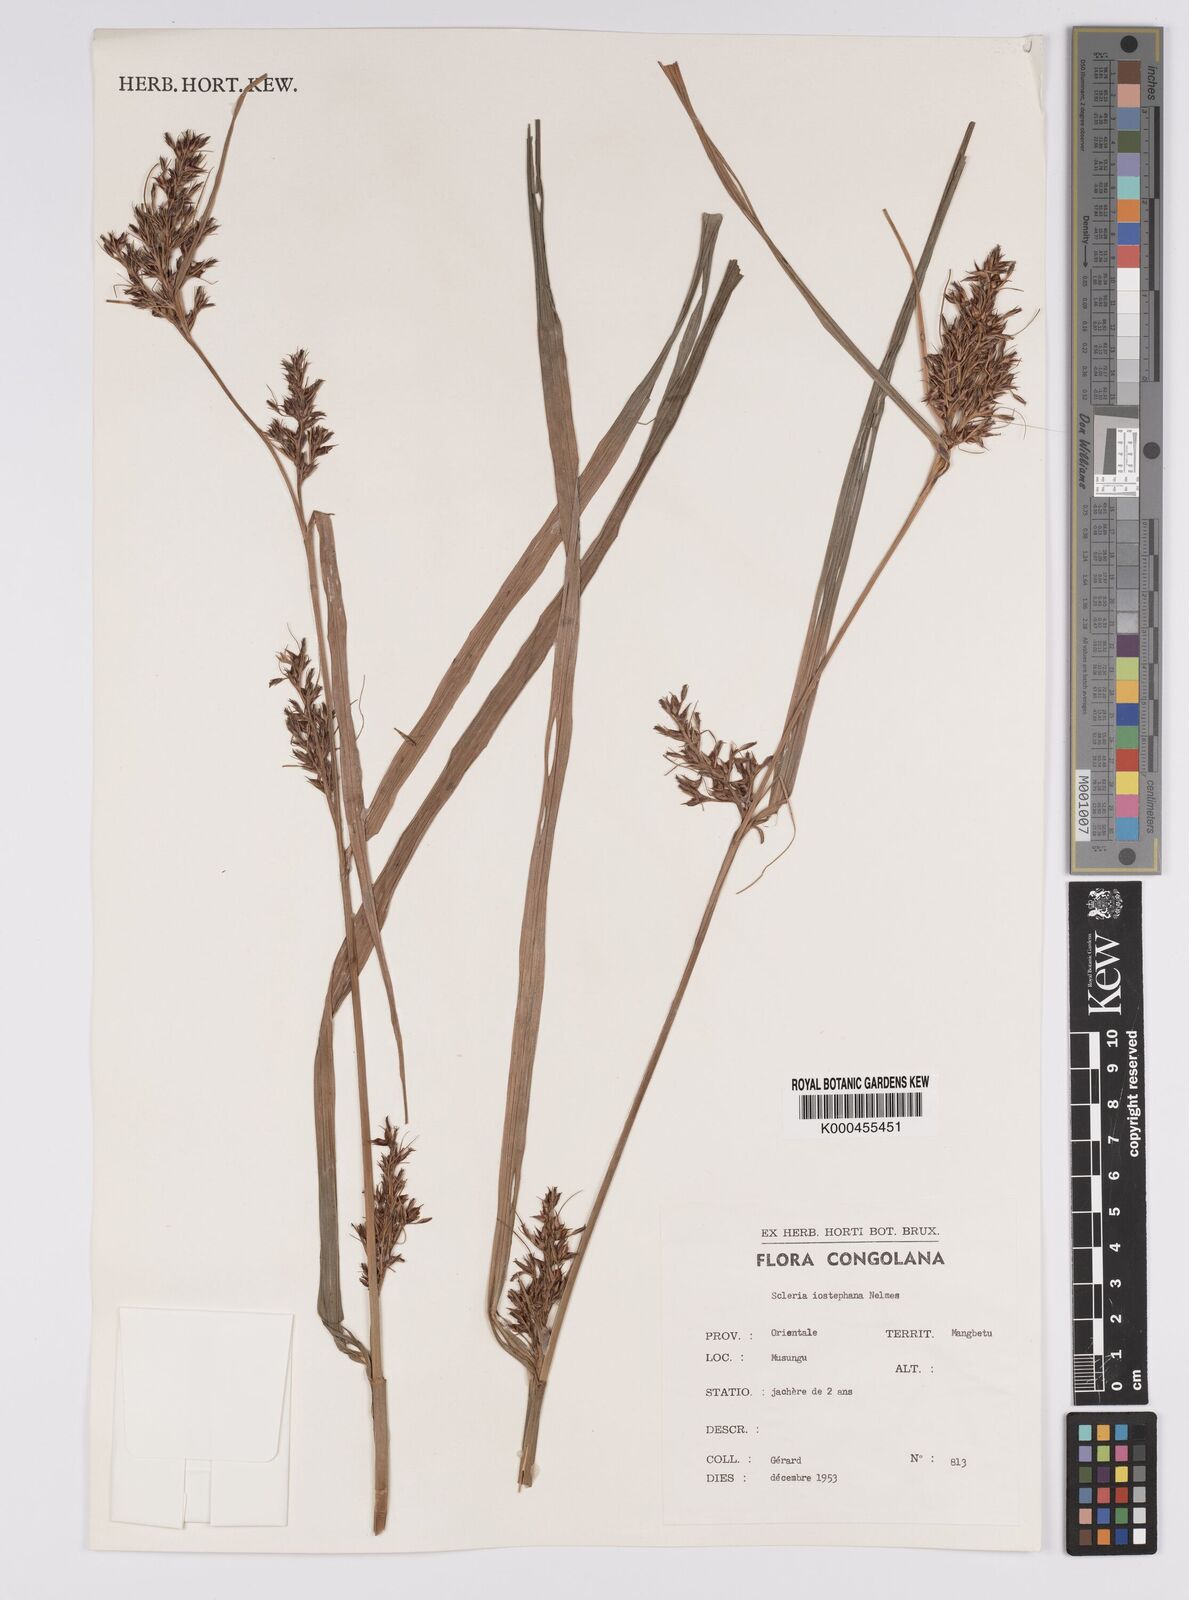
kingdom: Plantae
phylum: Tracheophyta
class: Liliopsida
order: Poales
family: Cyperaceae
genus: Scleria
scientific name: Scleria iostephana
